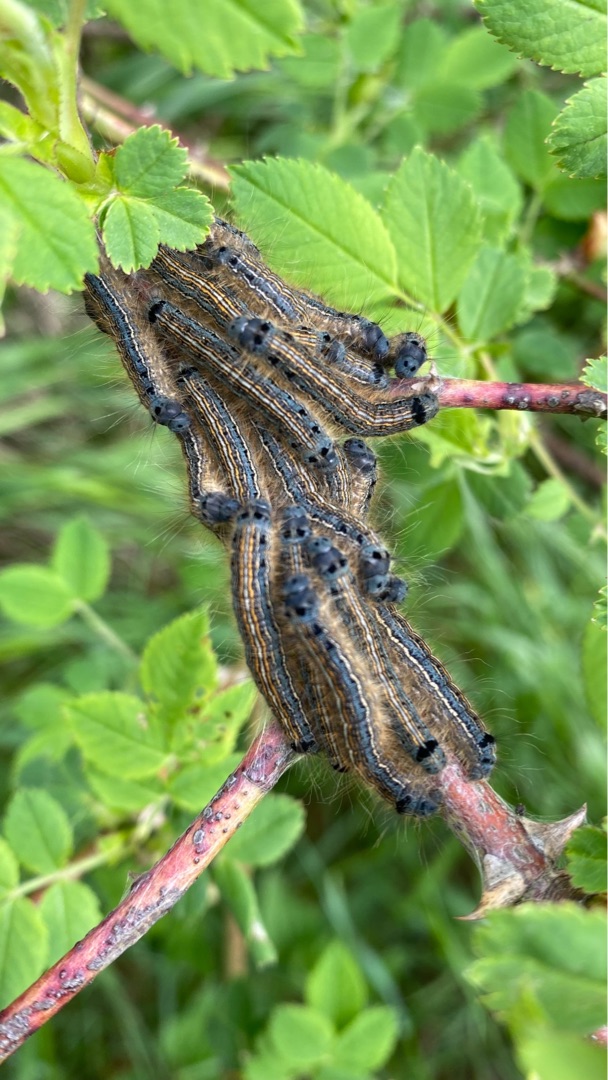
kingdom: Animalia
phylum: Arthropoda
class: Insecta
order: Lepidoptera
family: Lasiocampidae
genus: Malacosoma
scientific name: Malacosoma neustria
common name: Ringspinder
